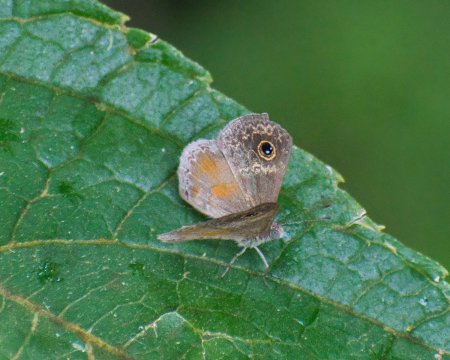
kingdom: Animalia
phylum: Arthropoda
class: Insecta
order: Lepidoptera
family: Riodinidae
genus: Perophthalma
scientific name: Perophthalma tullius
